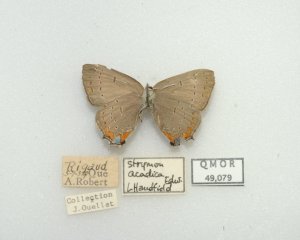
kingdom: Animalia
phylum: Arthropoda
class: Insecta
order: Lepidoptera
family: Lycaenidae
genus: Strymon
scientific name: Strymon acadica
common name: Acadian Hairstreak
